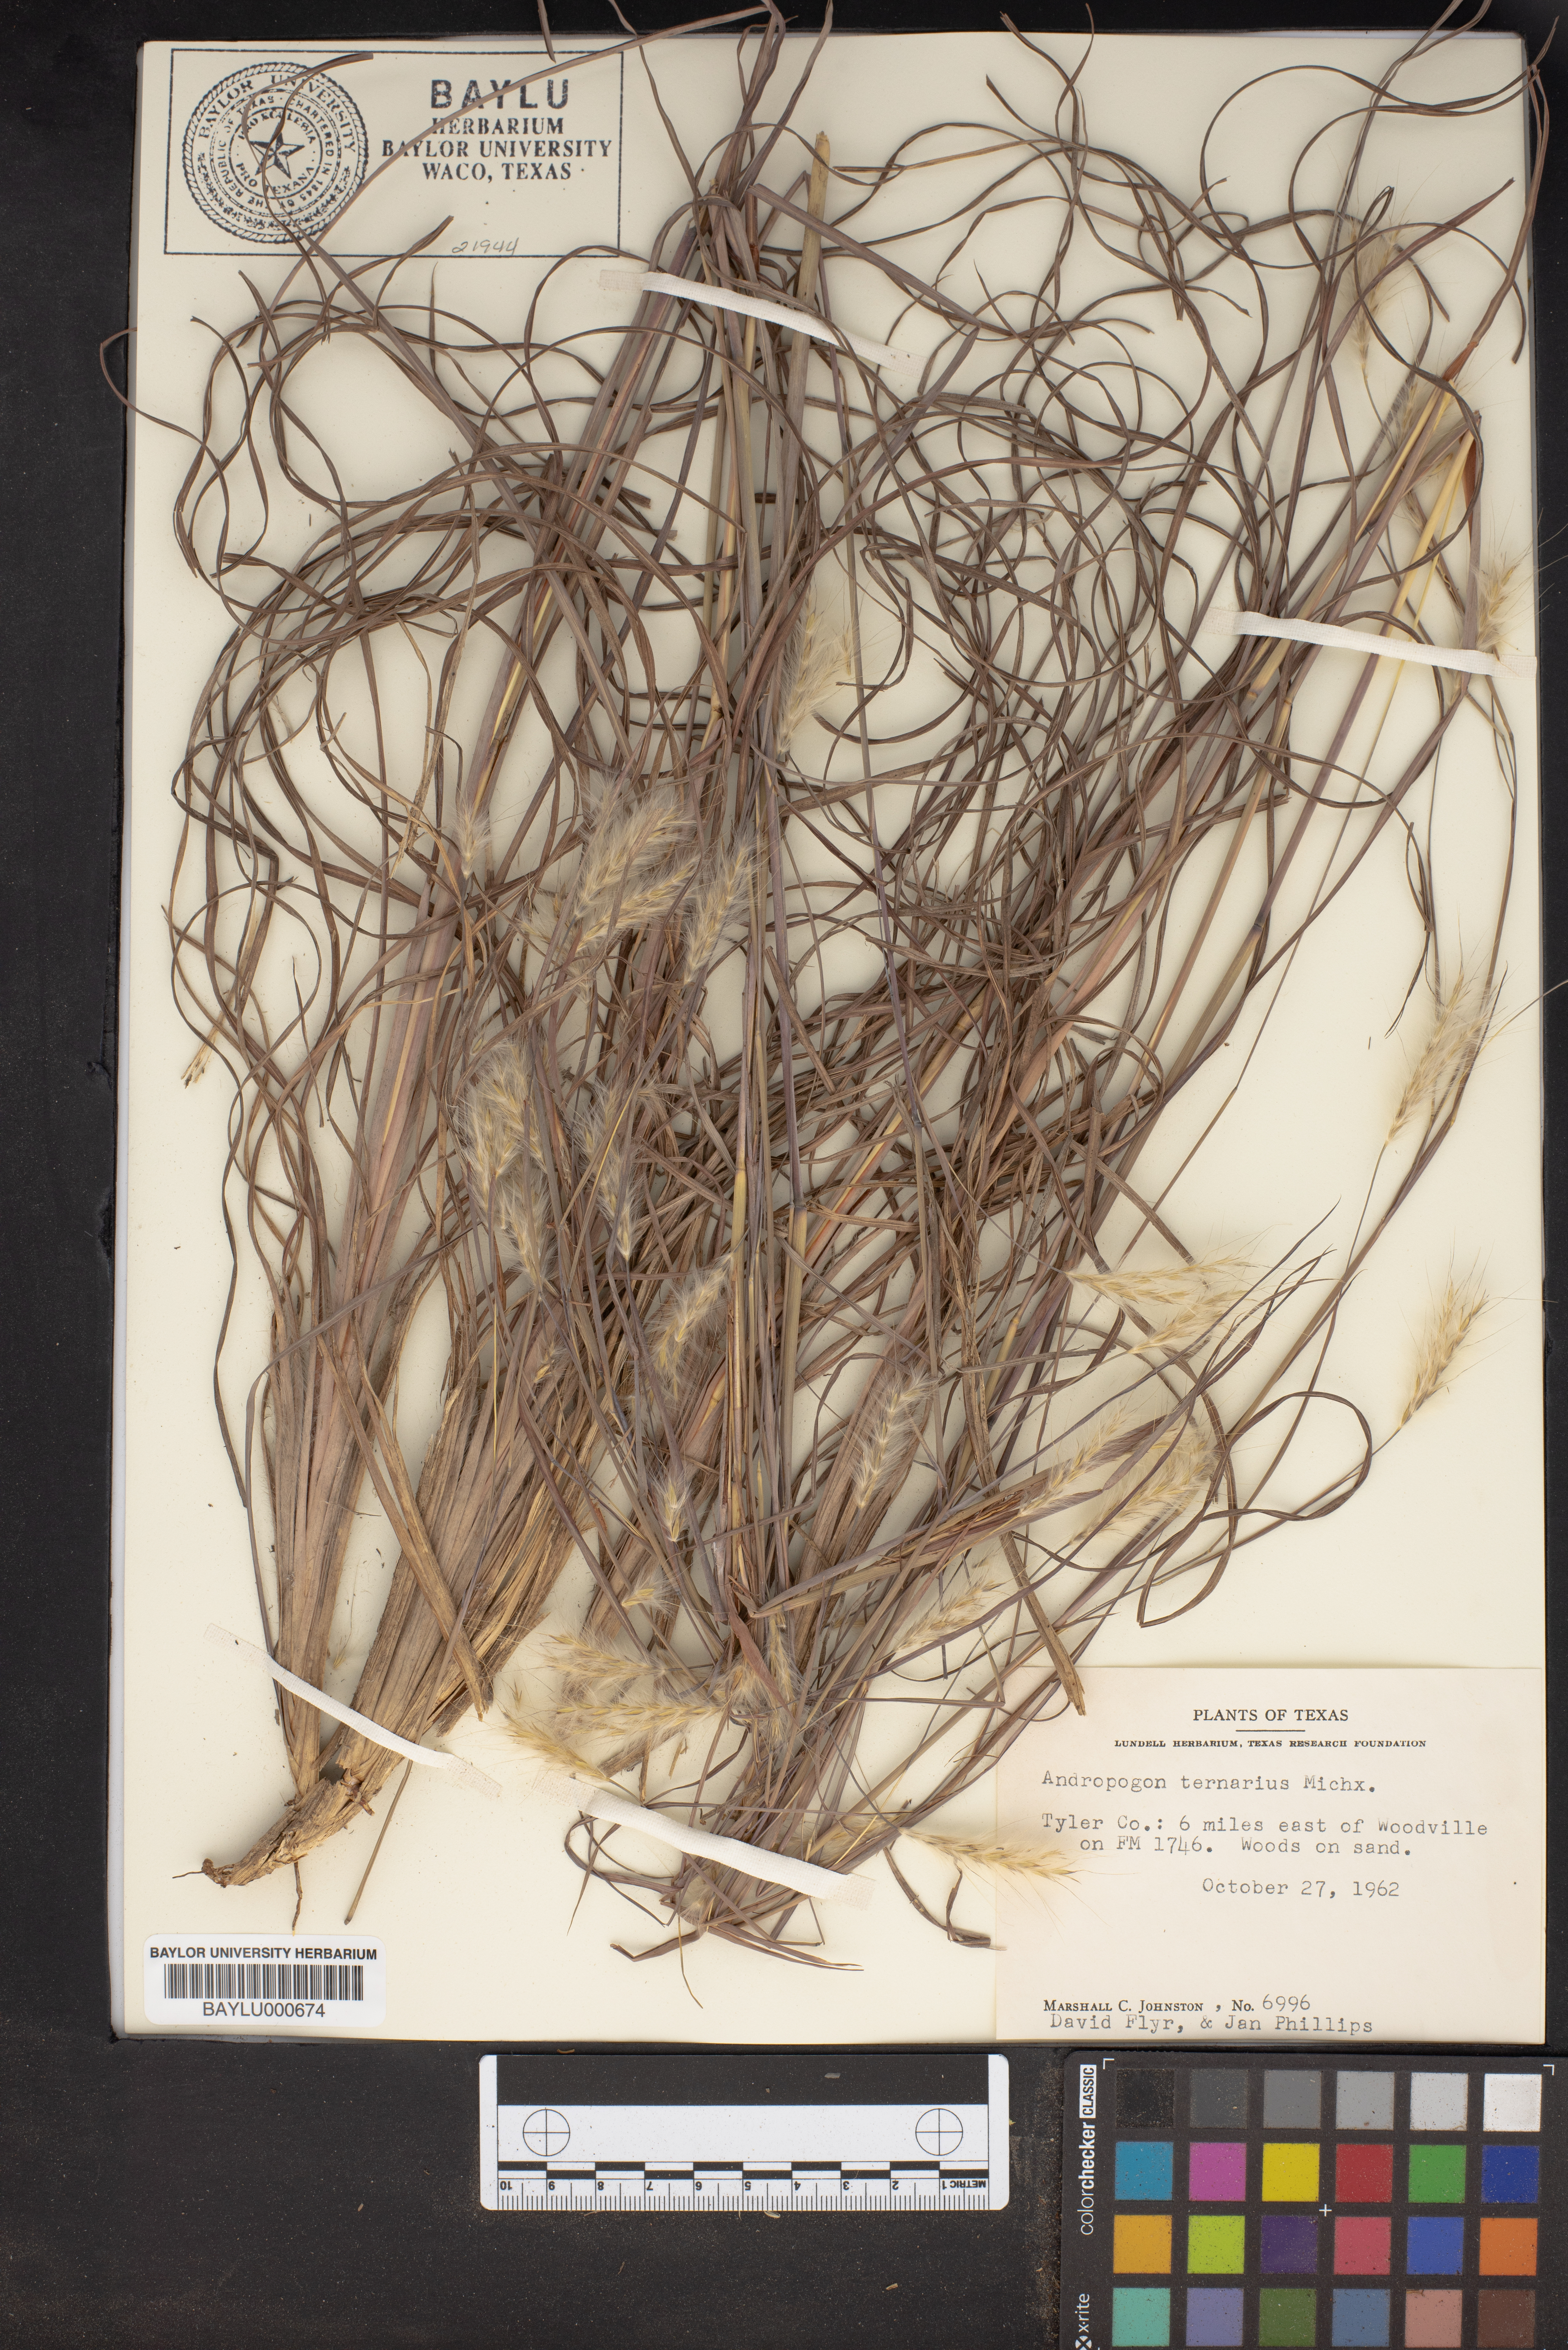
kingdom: Plantae
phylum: Tracheophyta
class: Liliopsida
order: Poales
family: Poaceae
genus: Andropogon
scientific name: Andropogon ternarius
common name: Split bluestem
